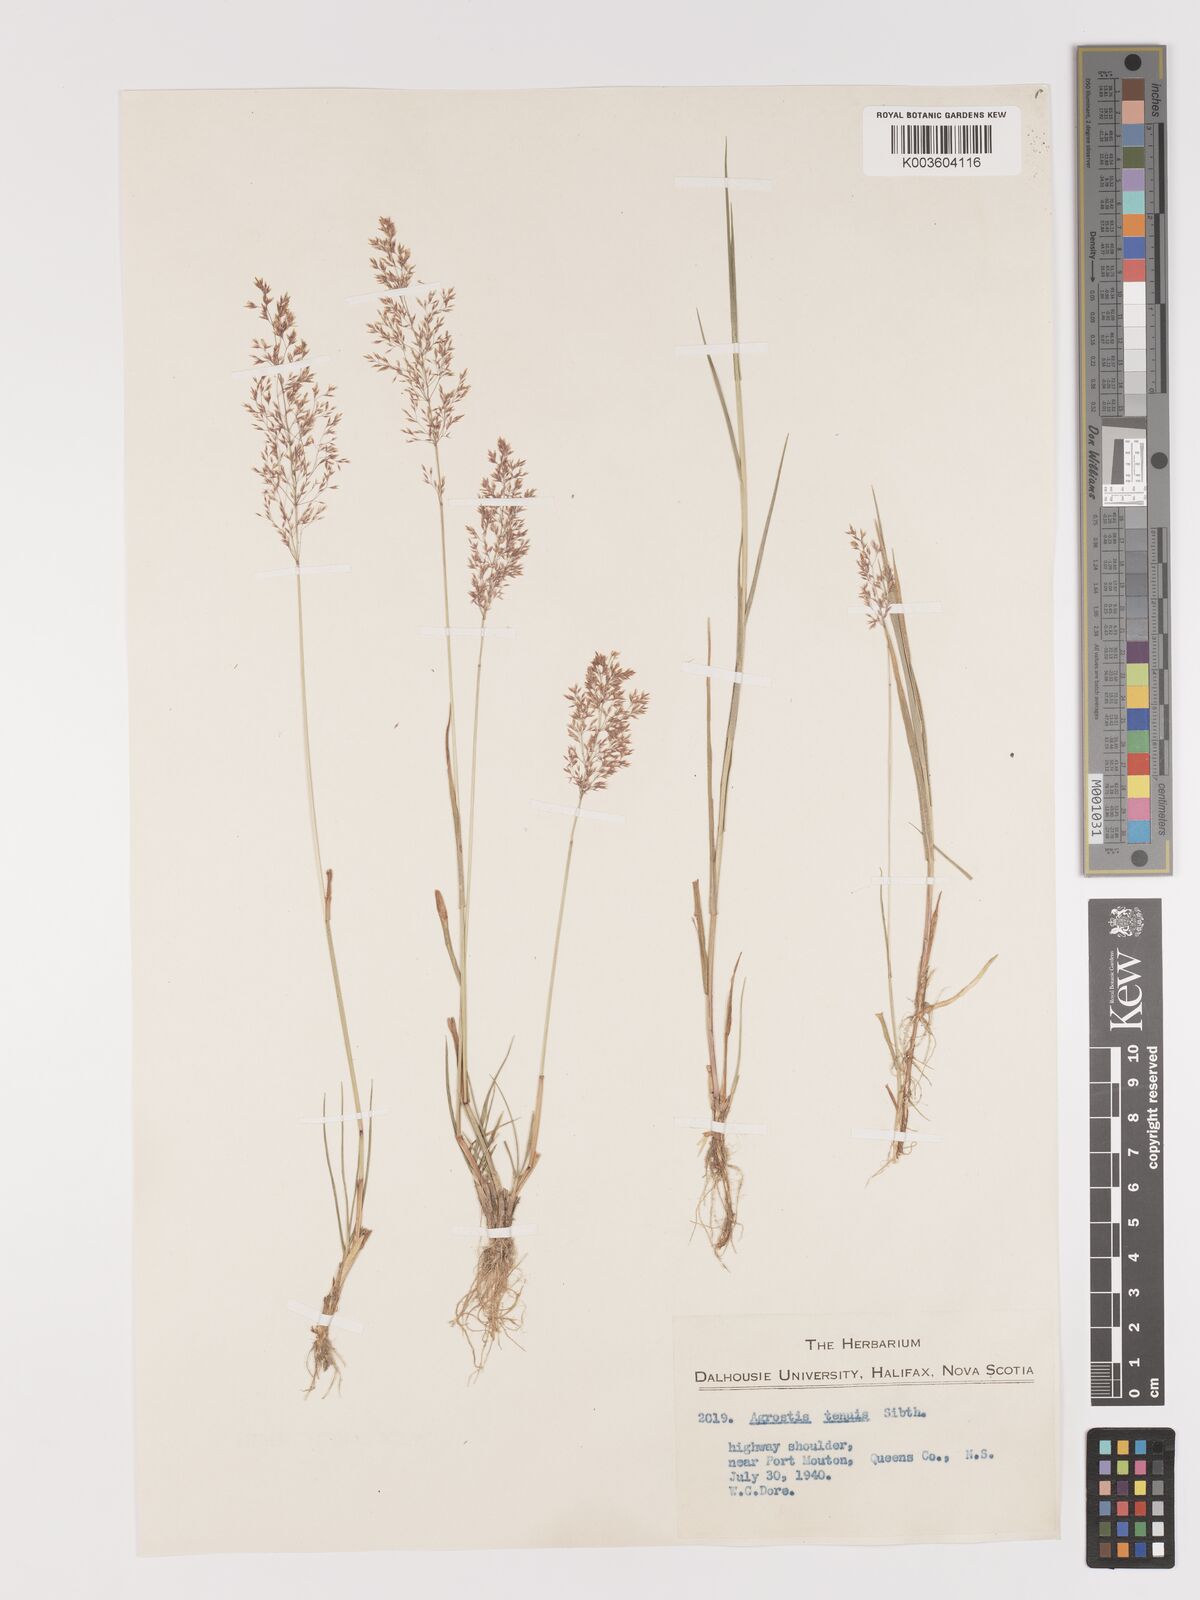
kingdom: Plantae
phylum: Tracheophyta
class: Liliopsida
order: Poales
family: Poaceae
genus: Agrostis
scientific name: Agrostis capillaris
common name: Colonial bentgrass
